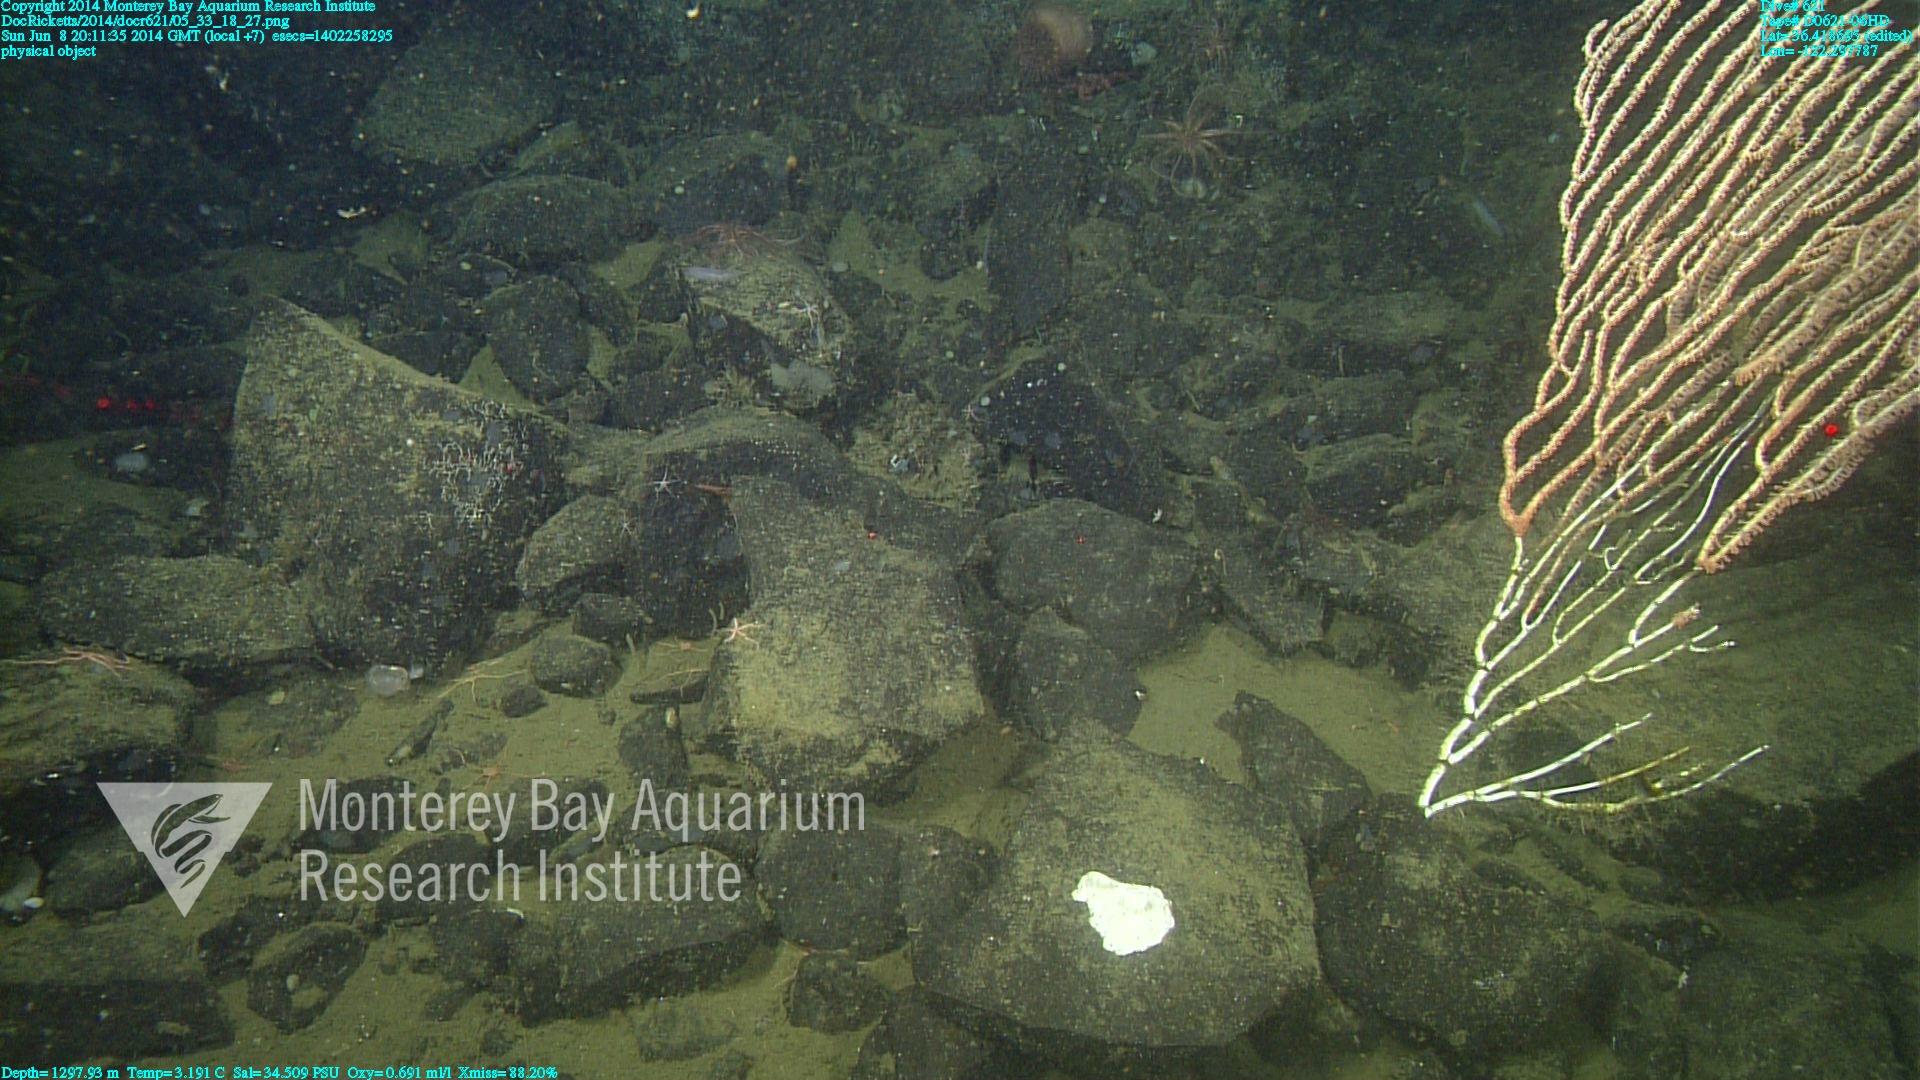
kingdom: Animalia
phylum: Cnidaria
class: Anthozoa
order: Scleralcyonacea
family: Keratoisididae
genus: Isidella
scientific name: Isidella
